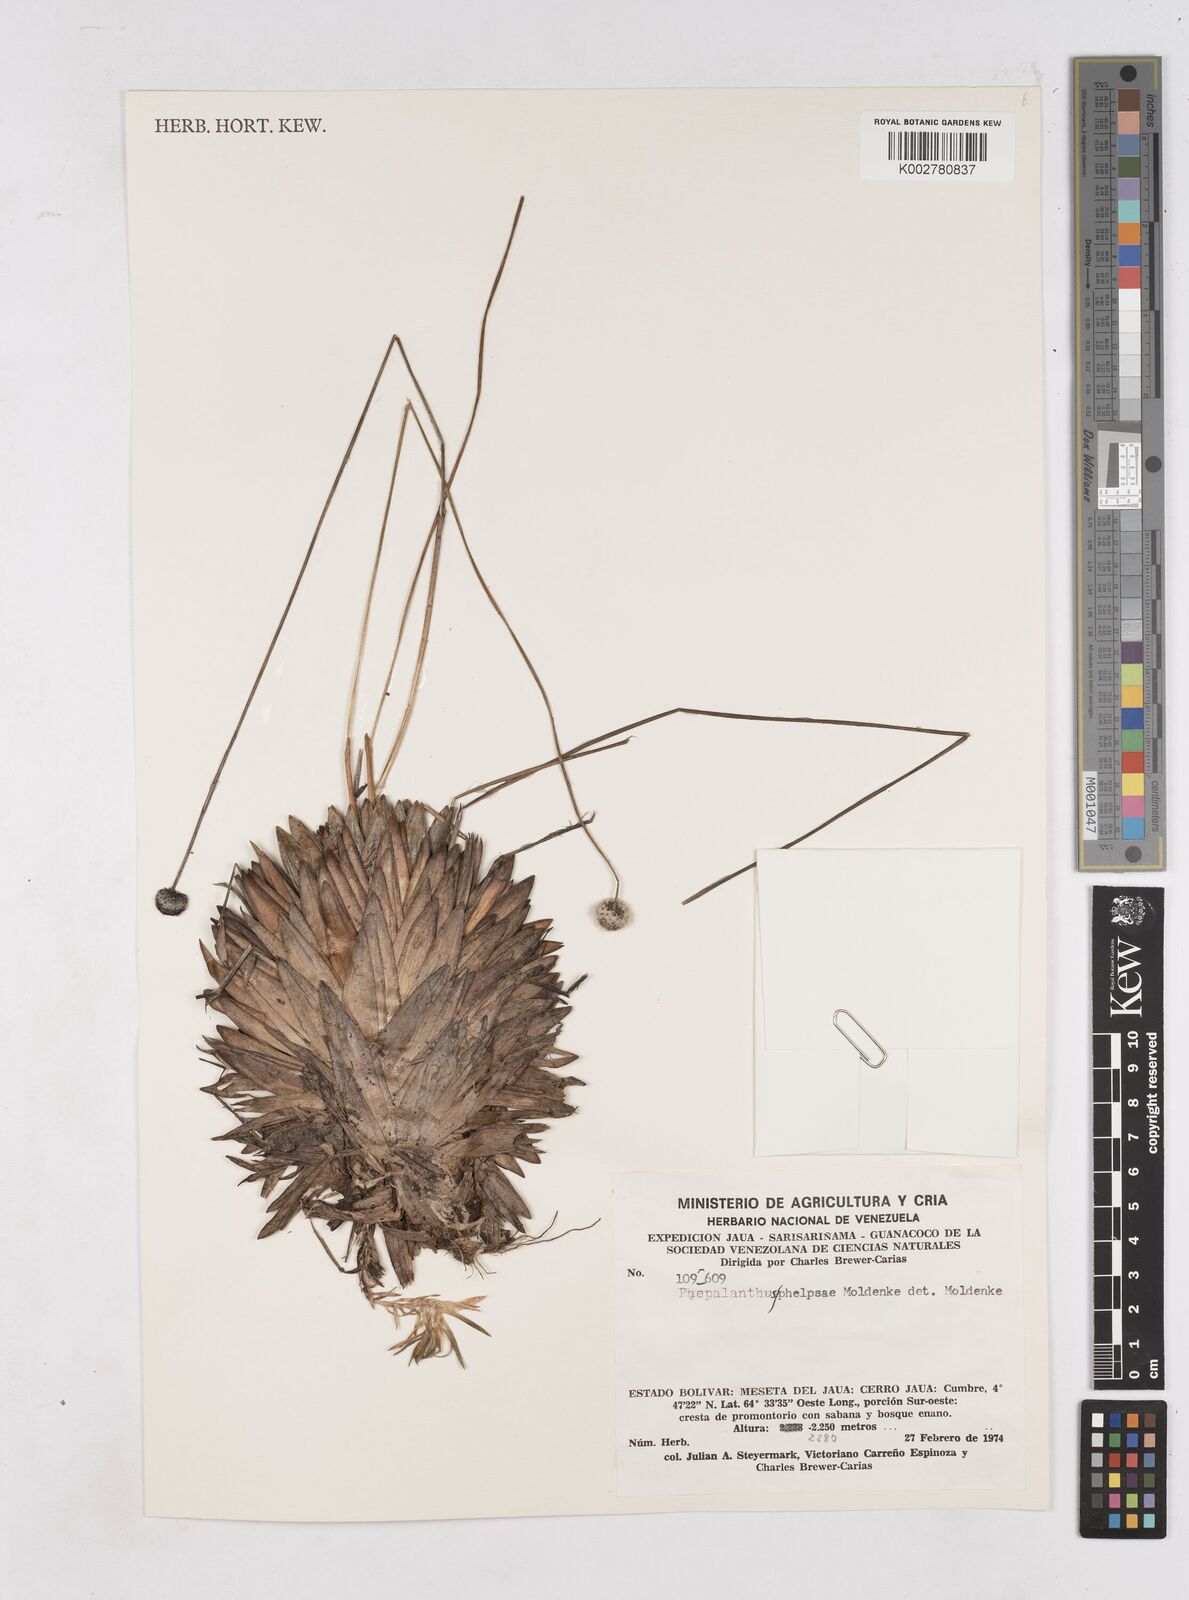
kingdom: Plantae
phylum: Tracheophyta
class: Liliopsida
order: Poales
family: Eriocaulaceae
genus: Paepalanthus
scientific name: Paepalanthus phelpsiae
